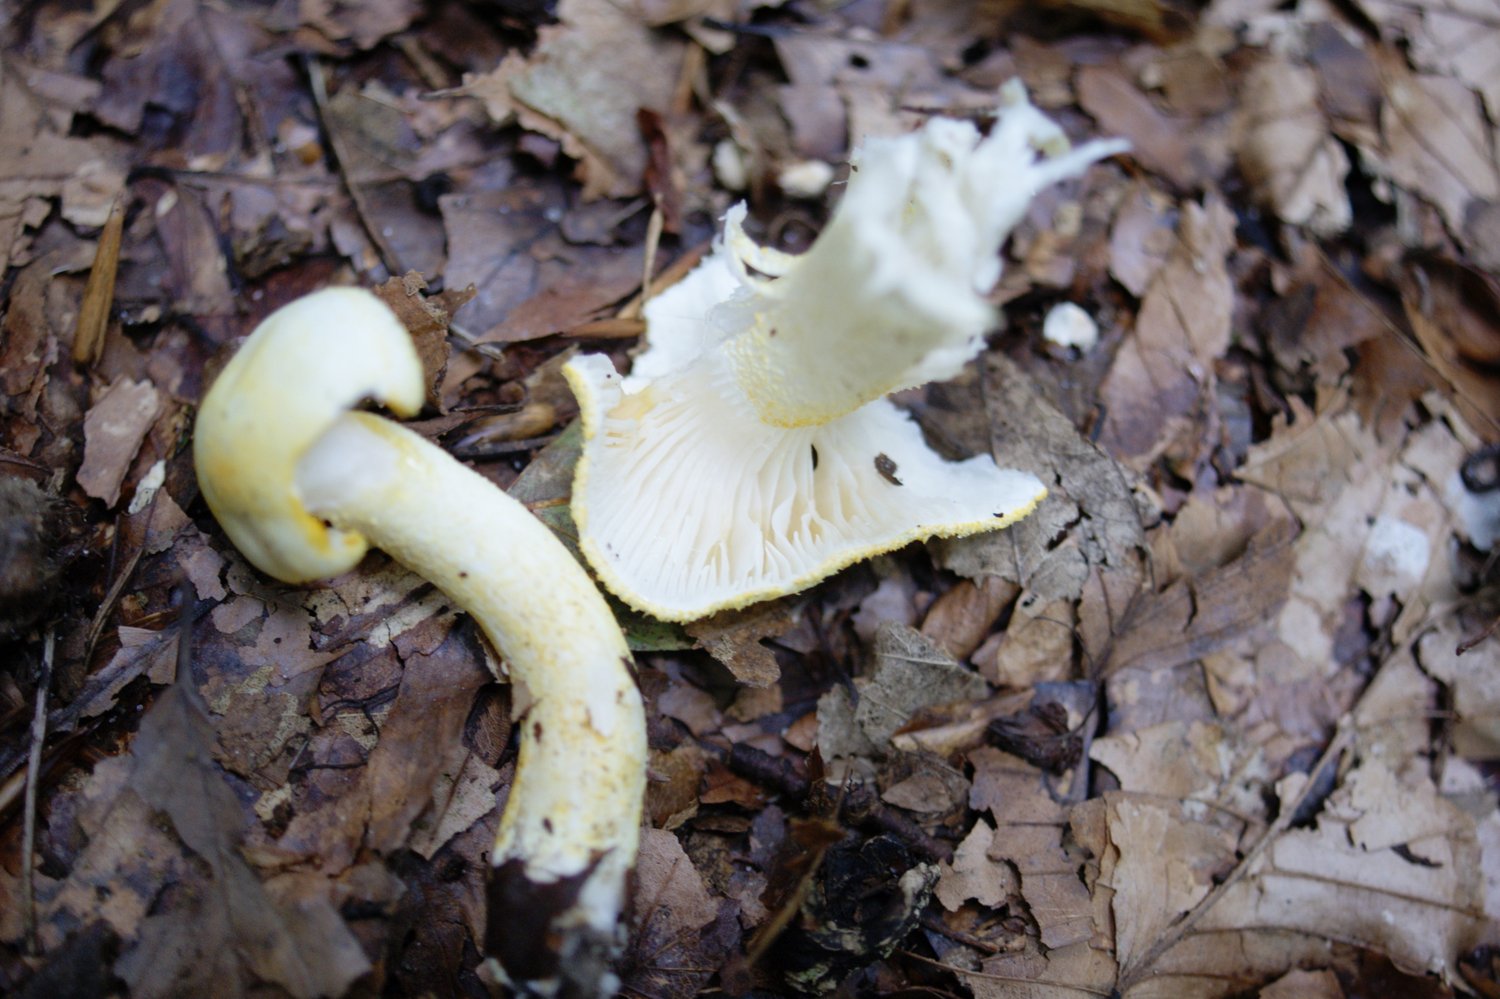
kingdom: Fungi
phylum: Basidiomycota
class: Agaricomycetes
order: Agaricales
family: Hygrophoraceae
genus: Hygrophorus
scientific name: Hygrophorus chrysodon
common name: gulfnugget sneglehat
